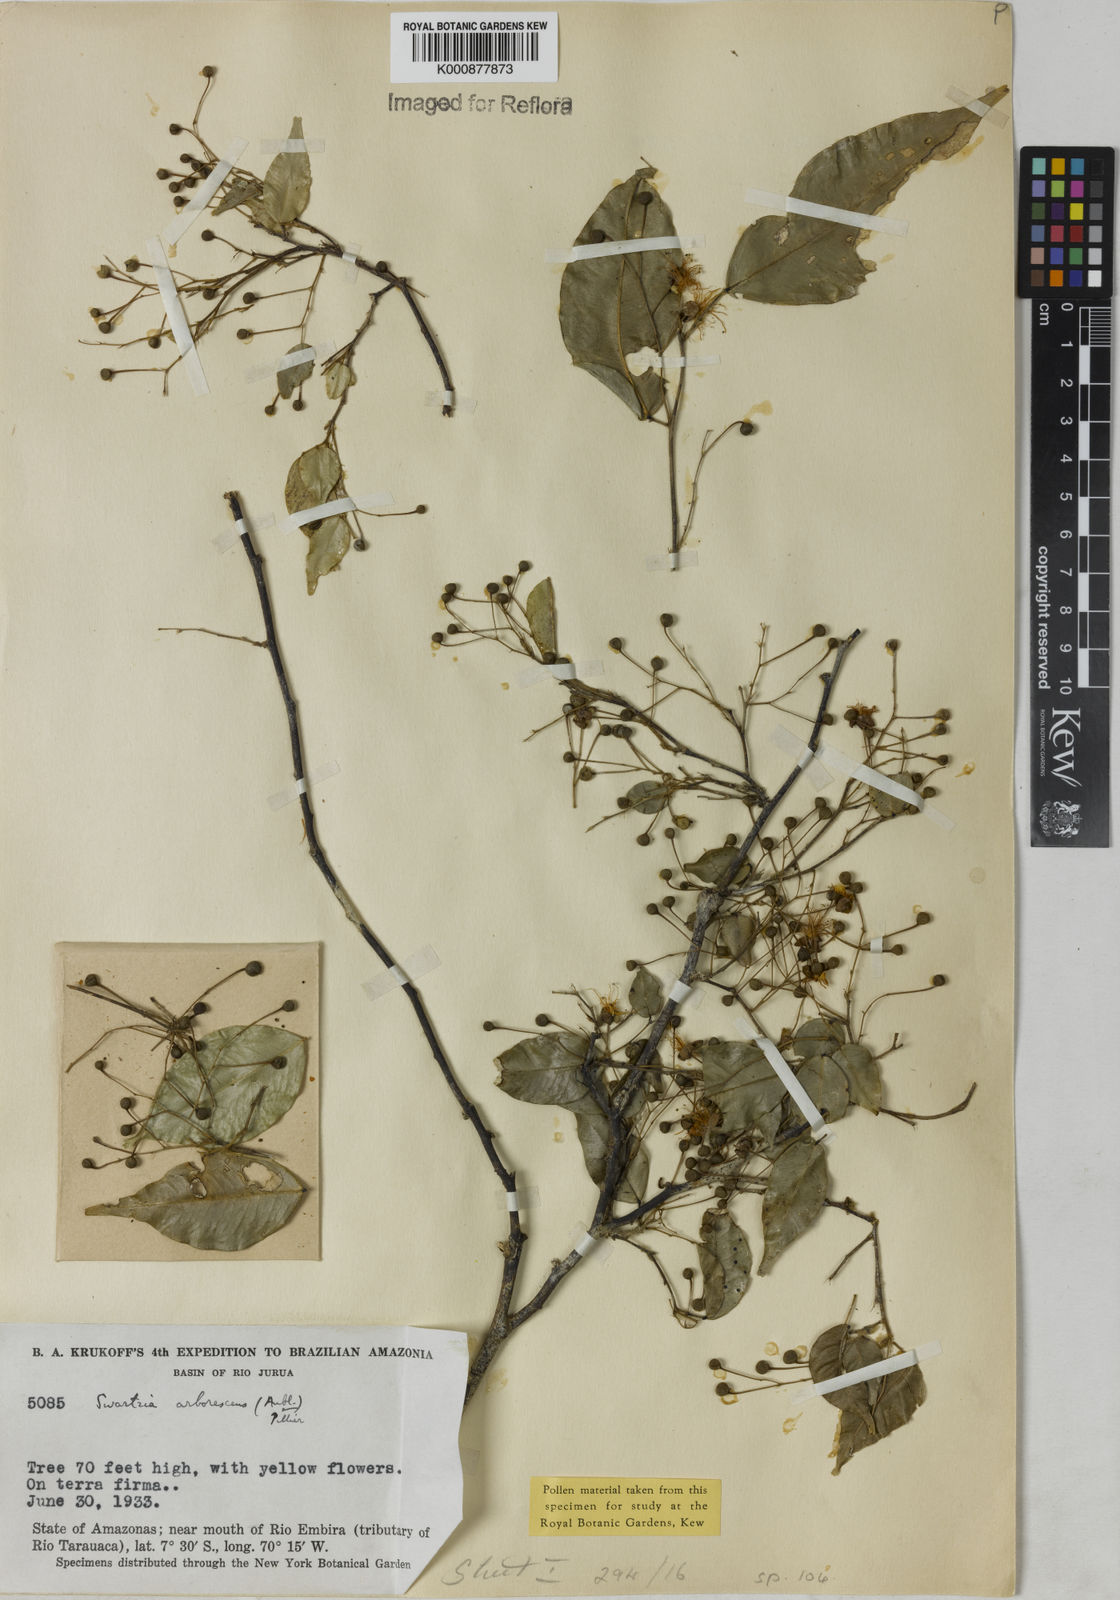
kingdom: Plantae
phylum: Tracheophyta
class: Magnoliopsida
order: Fabales
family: Fabaceae
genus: Swartzia
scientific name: Swartzia arborescens
